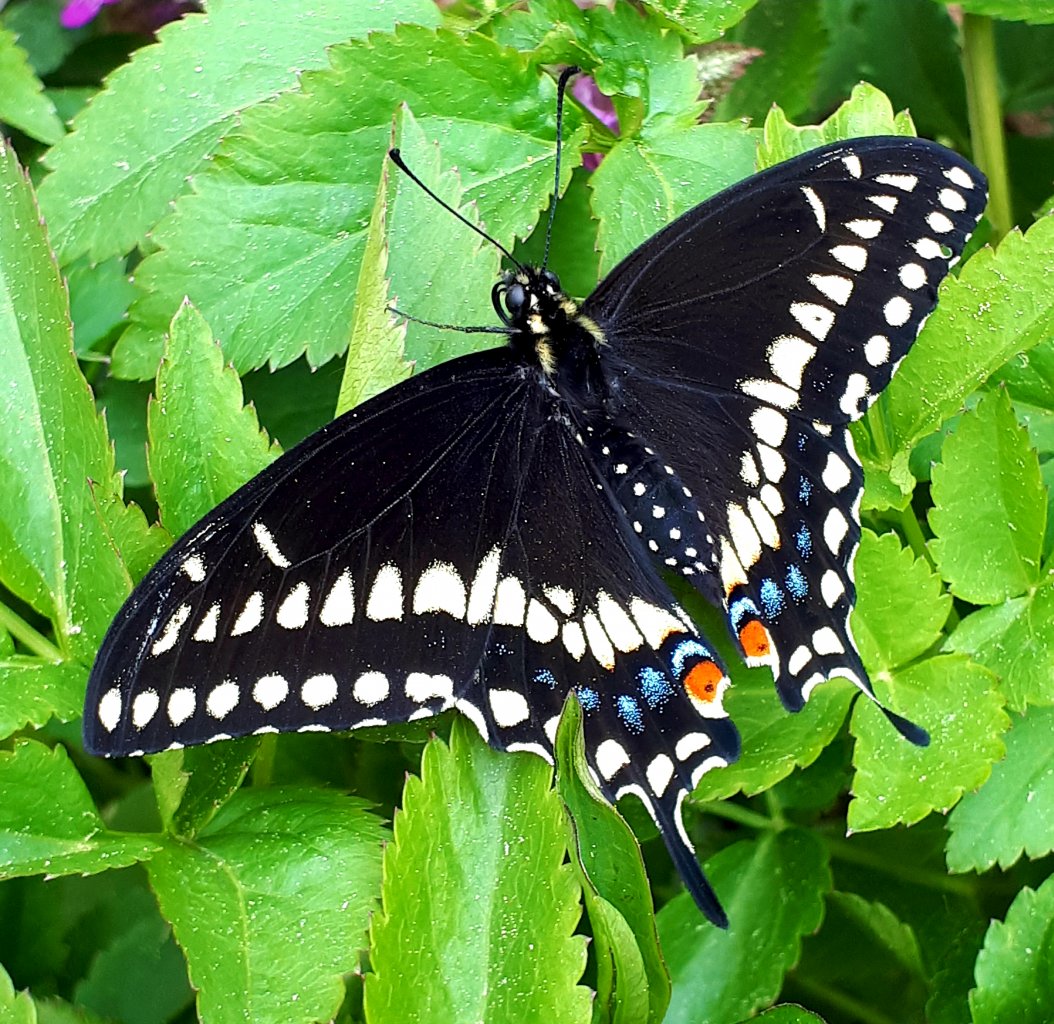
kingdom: Animalia
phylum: Arthropoda
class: Insecta
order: Lepidoptera
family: Papilionidae
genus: Papilio
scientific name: Papilio polyxenes
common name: Black Swallowtail
